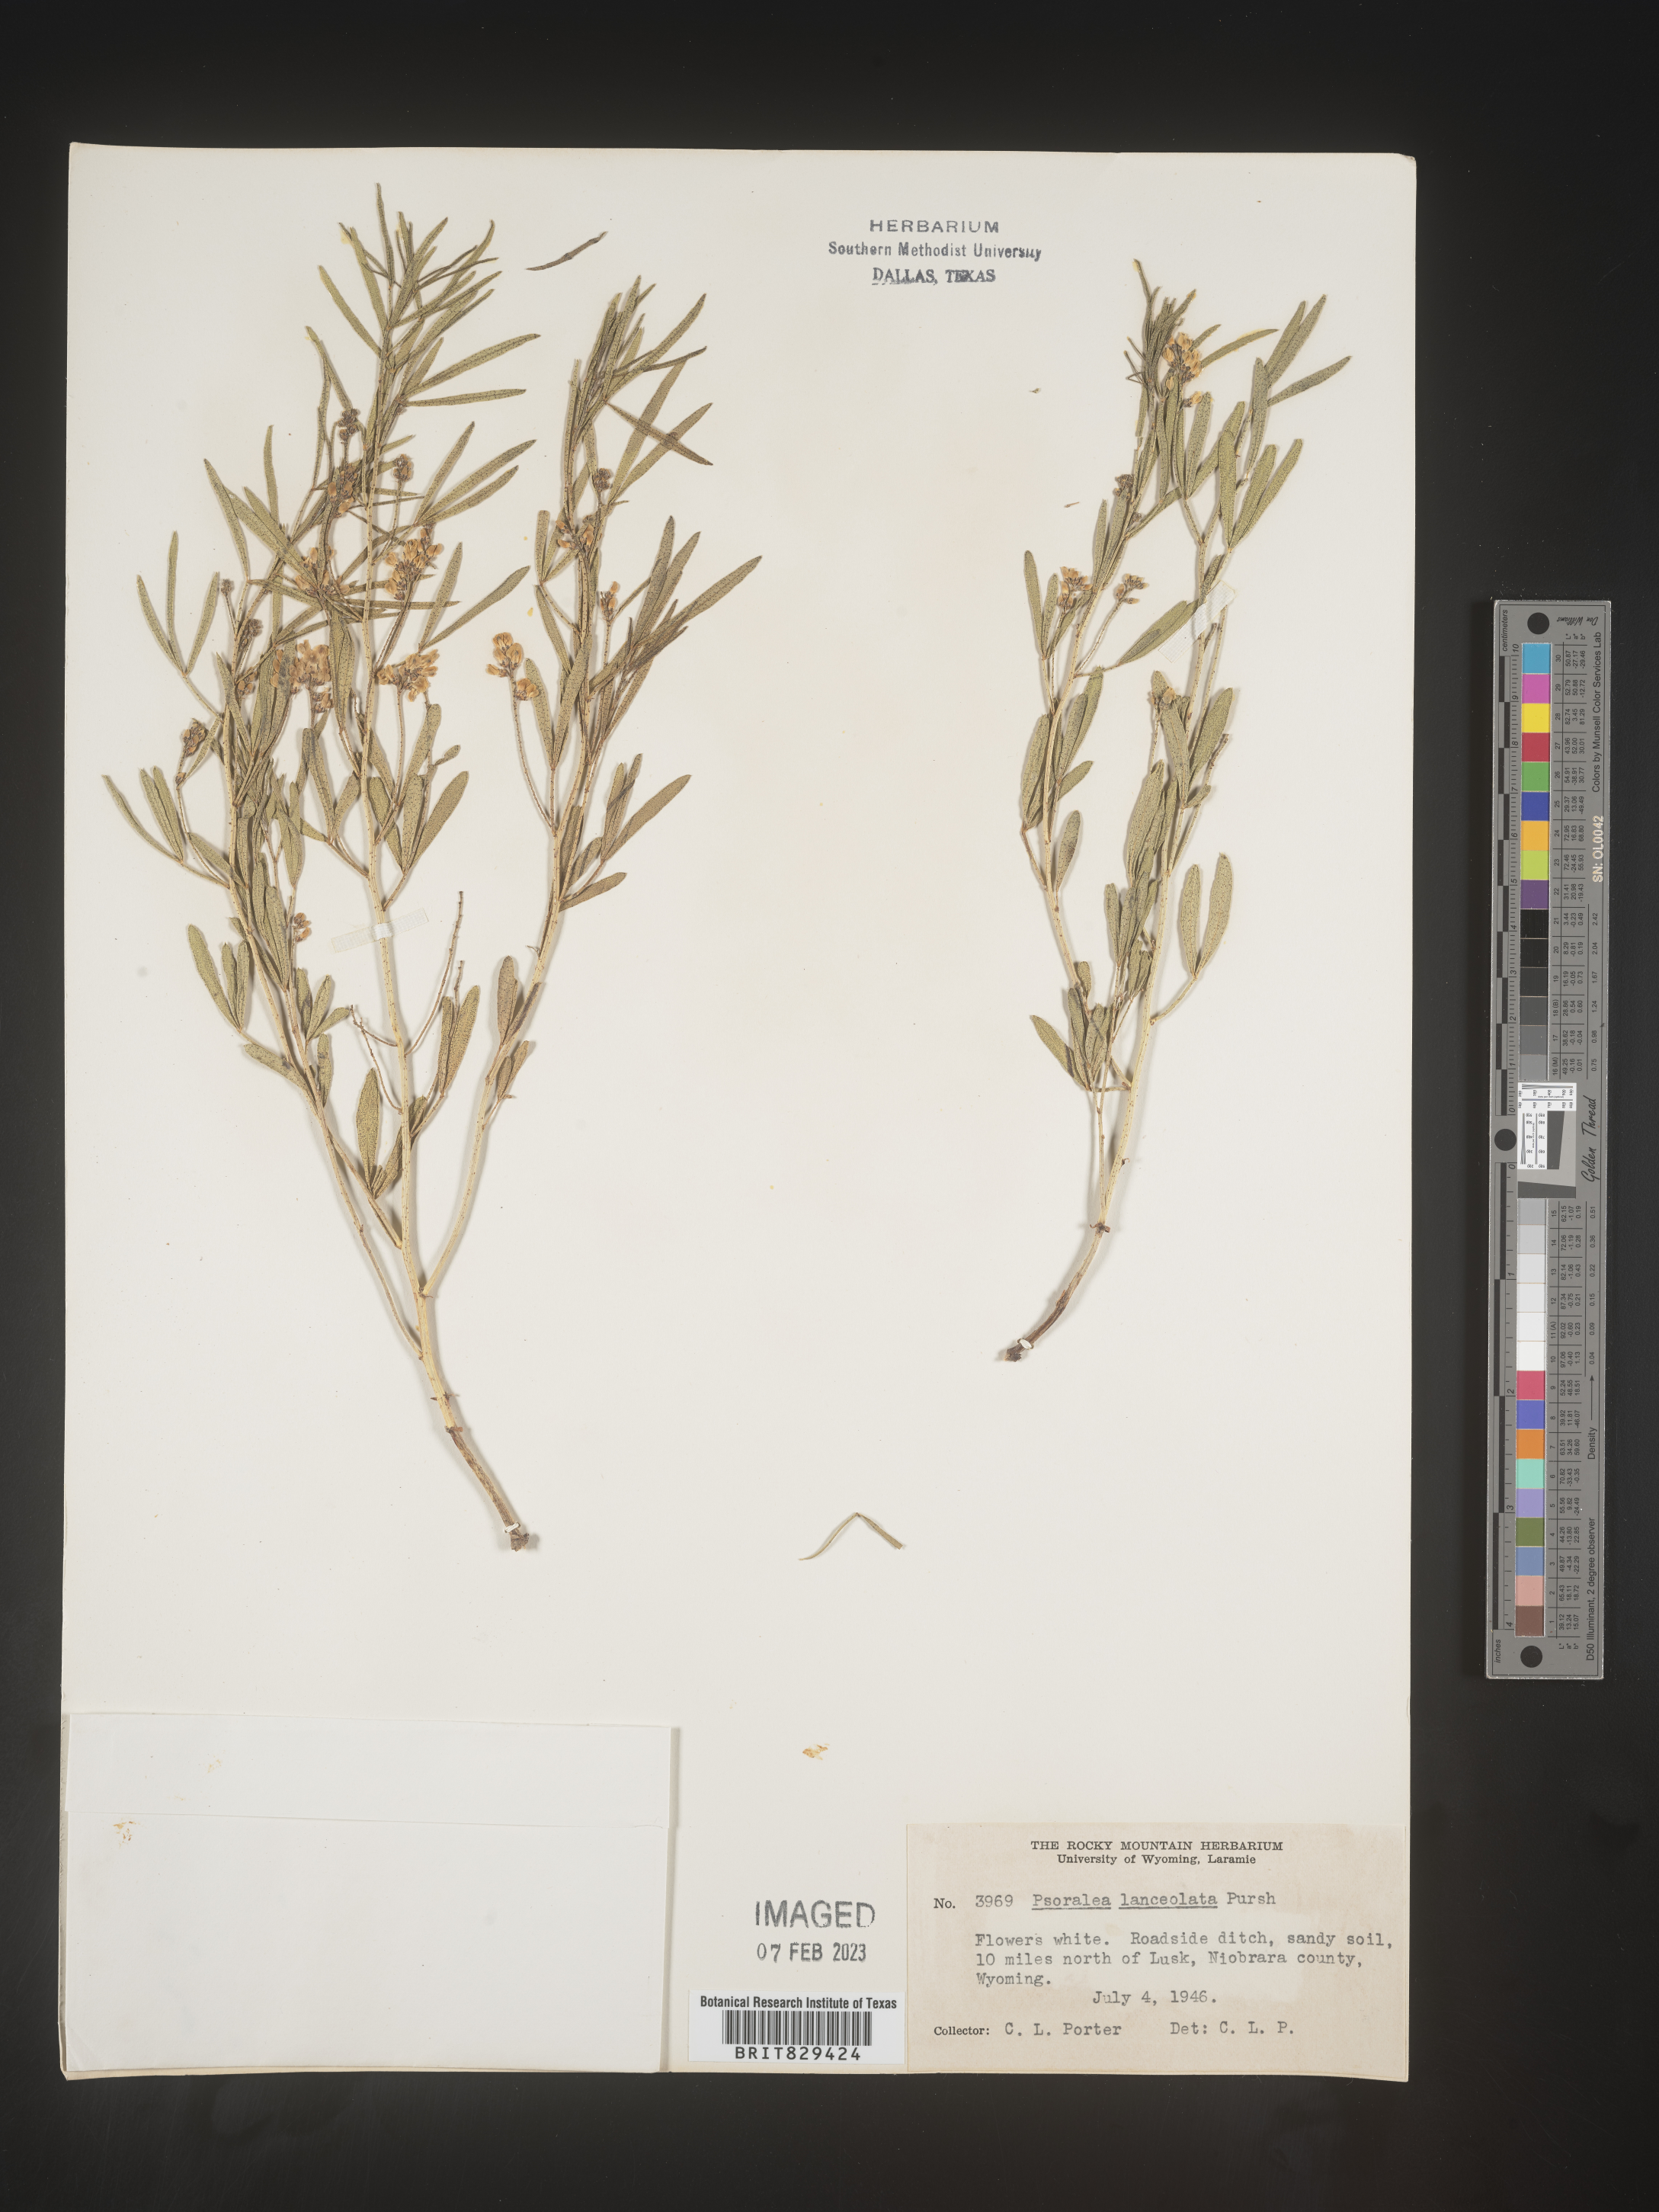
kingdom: Plantae
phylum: Tracheophyta
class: Magnoliopsida
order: Fabales
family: Fabaceae
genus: Psoralea
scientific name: Psoralea
